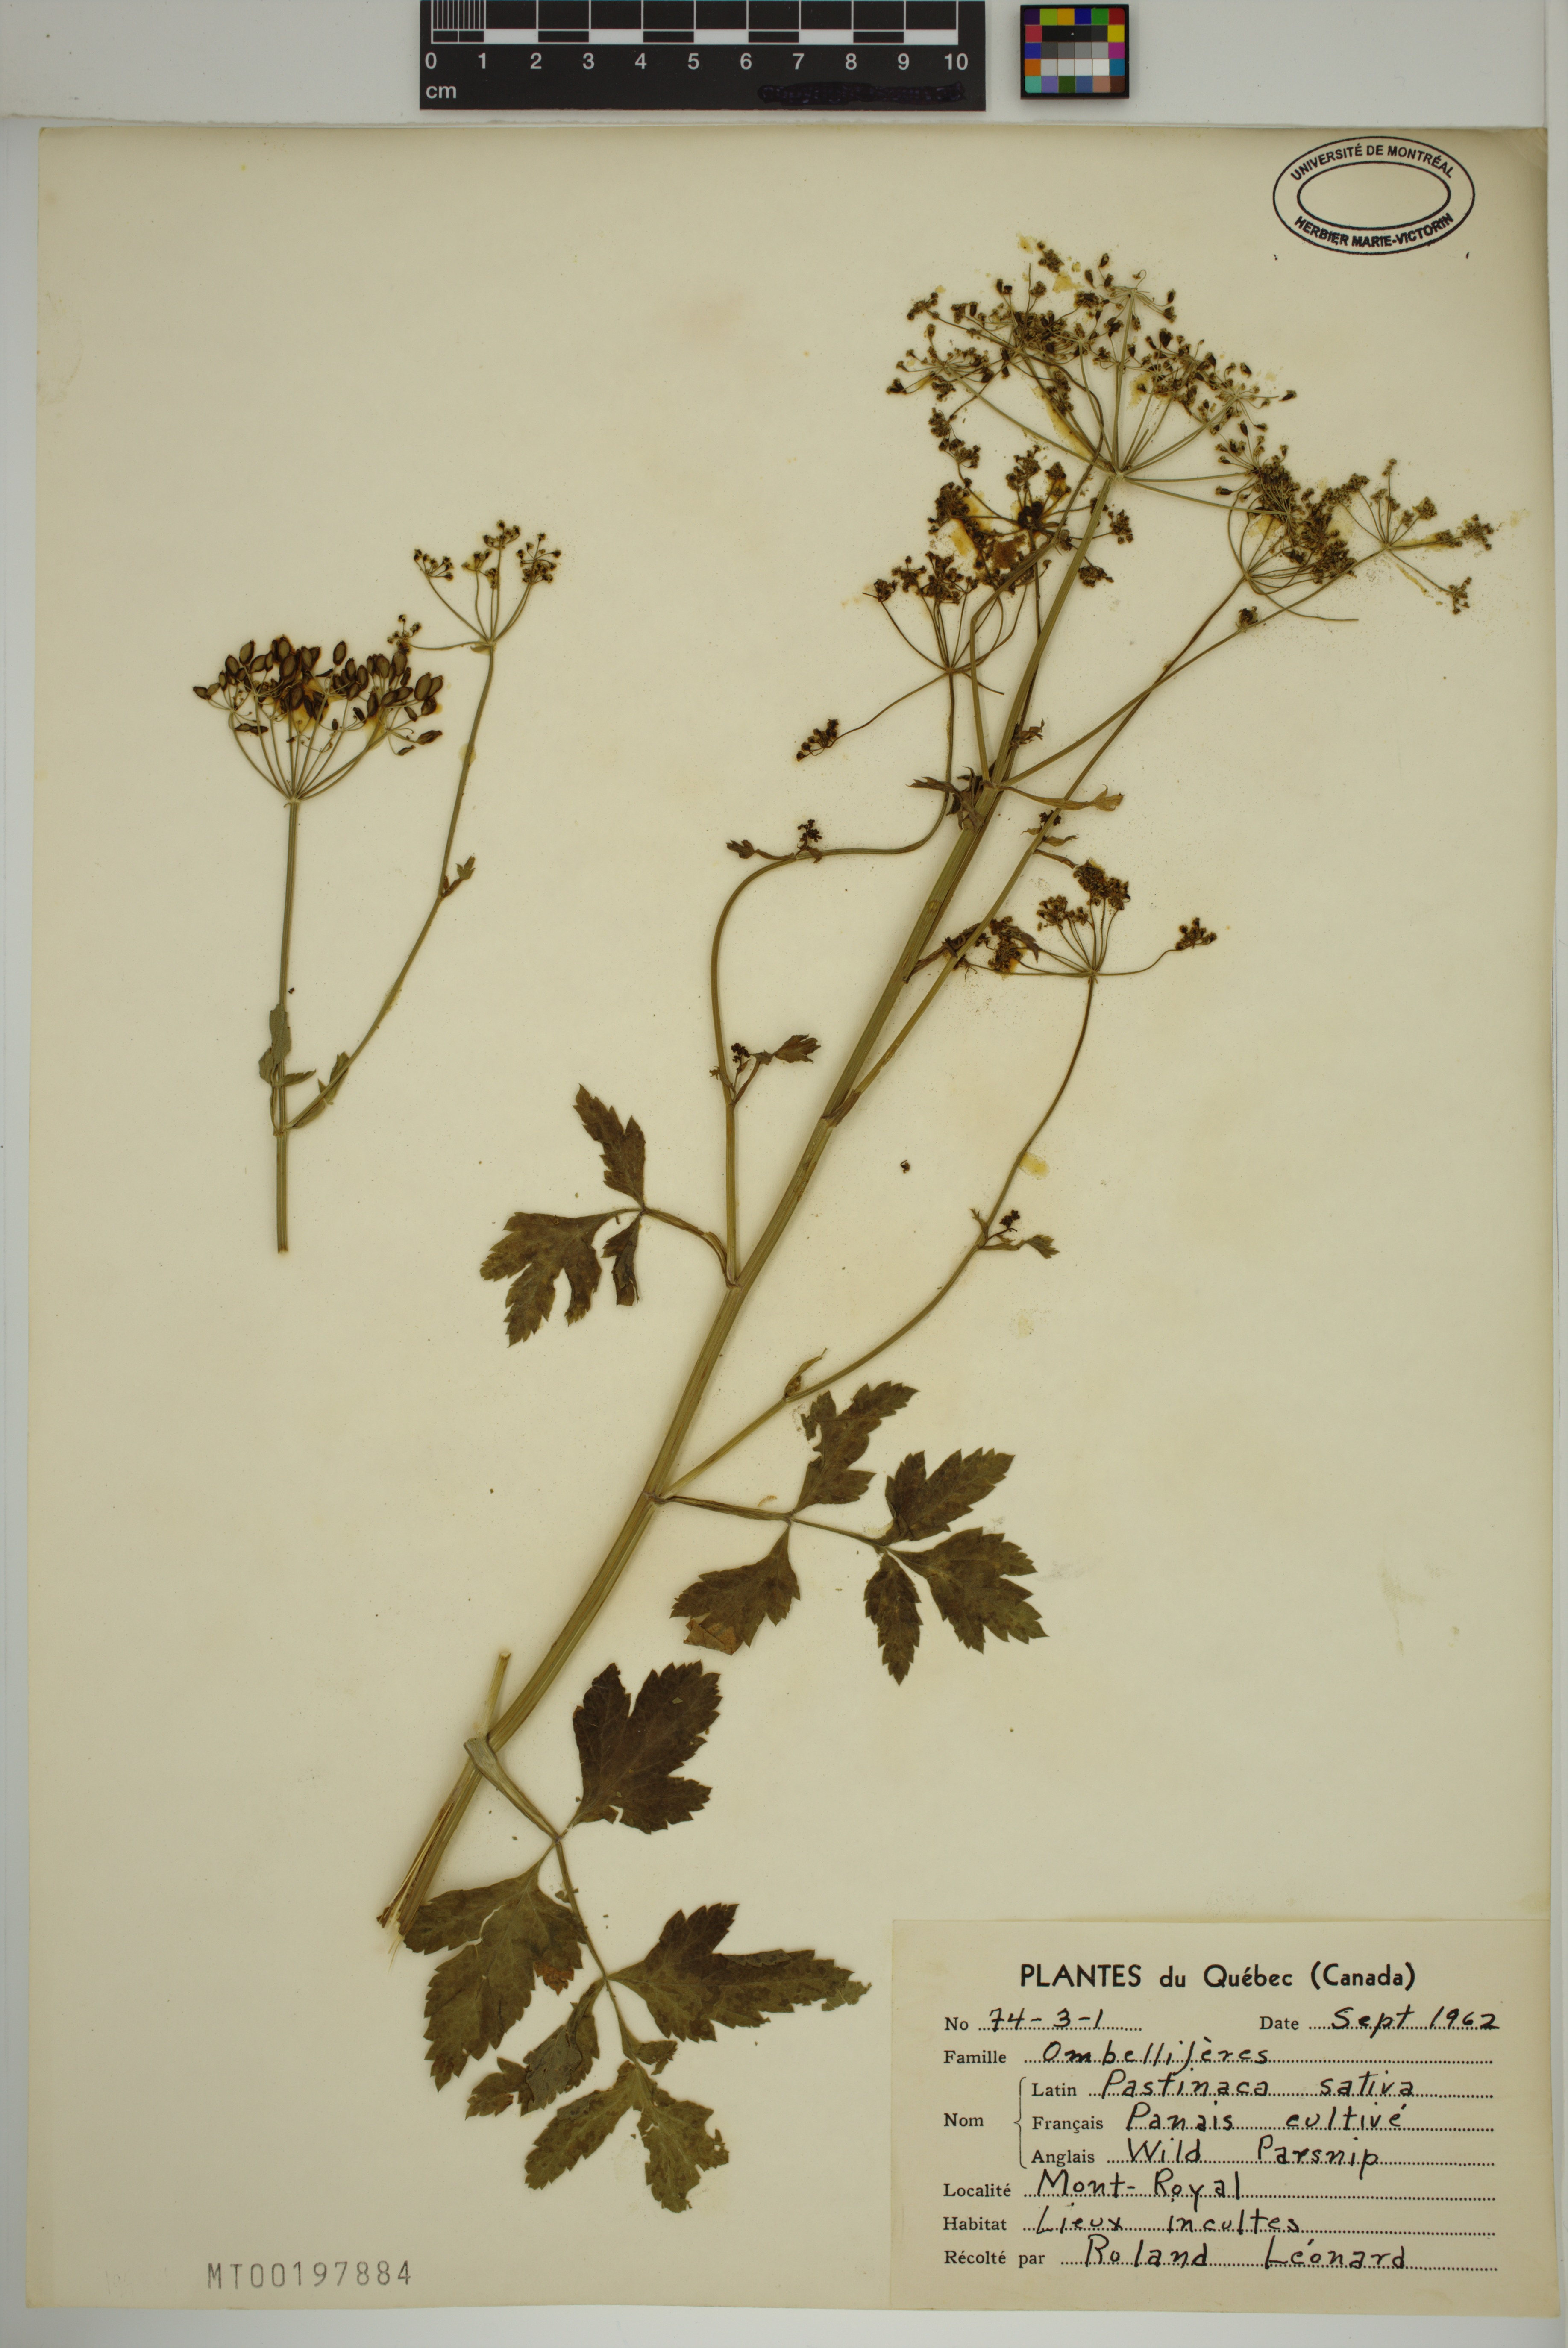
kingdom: Plantae
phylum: Tracheophyta
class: Magnoliopsida
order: Apiales
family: Apiaceae
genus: Pastinaca
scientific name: Pastinaca sativa
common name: Wild parsnip
